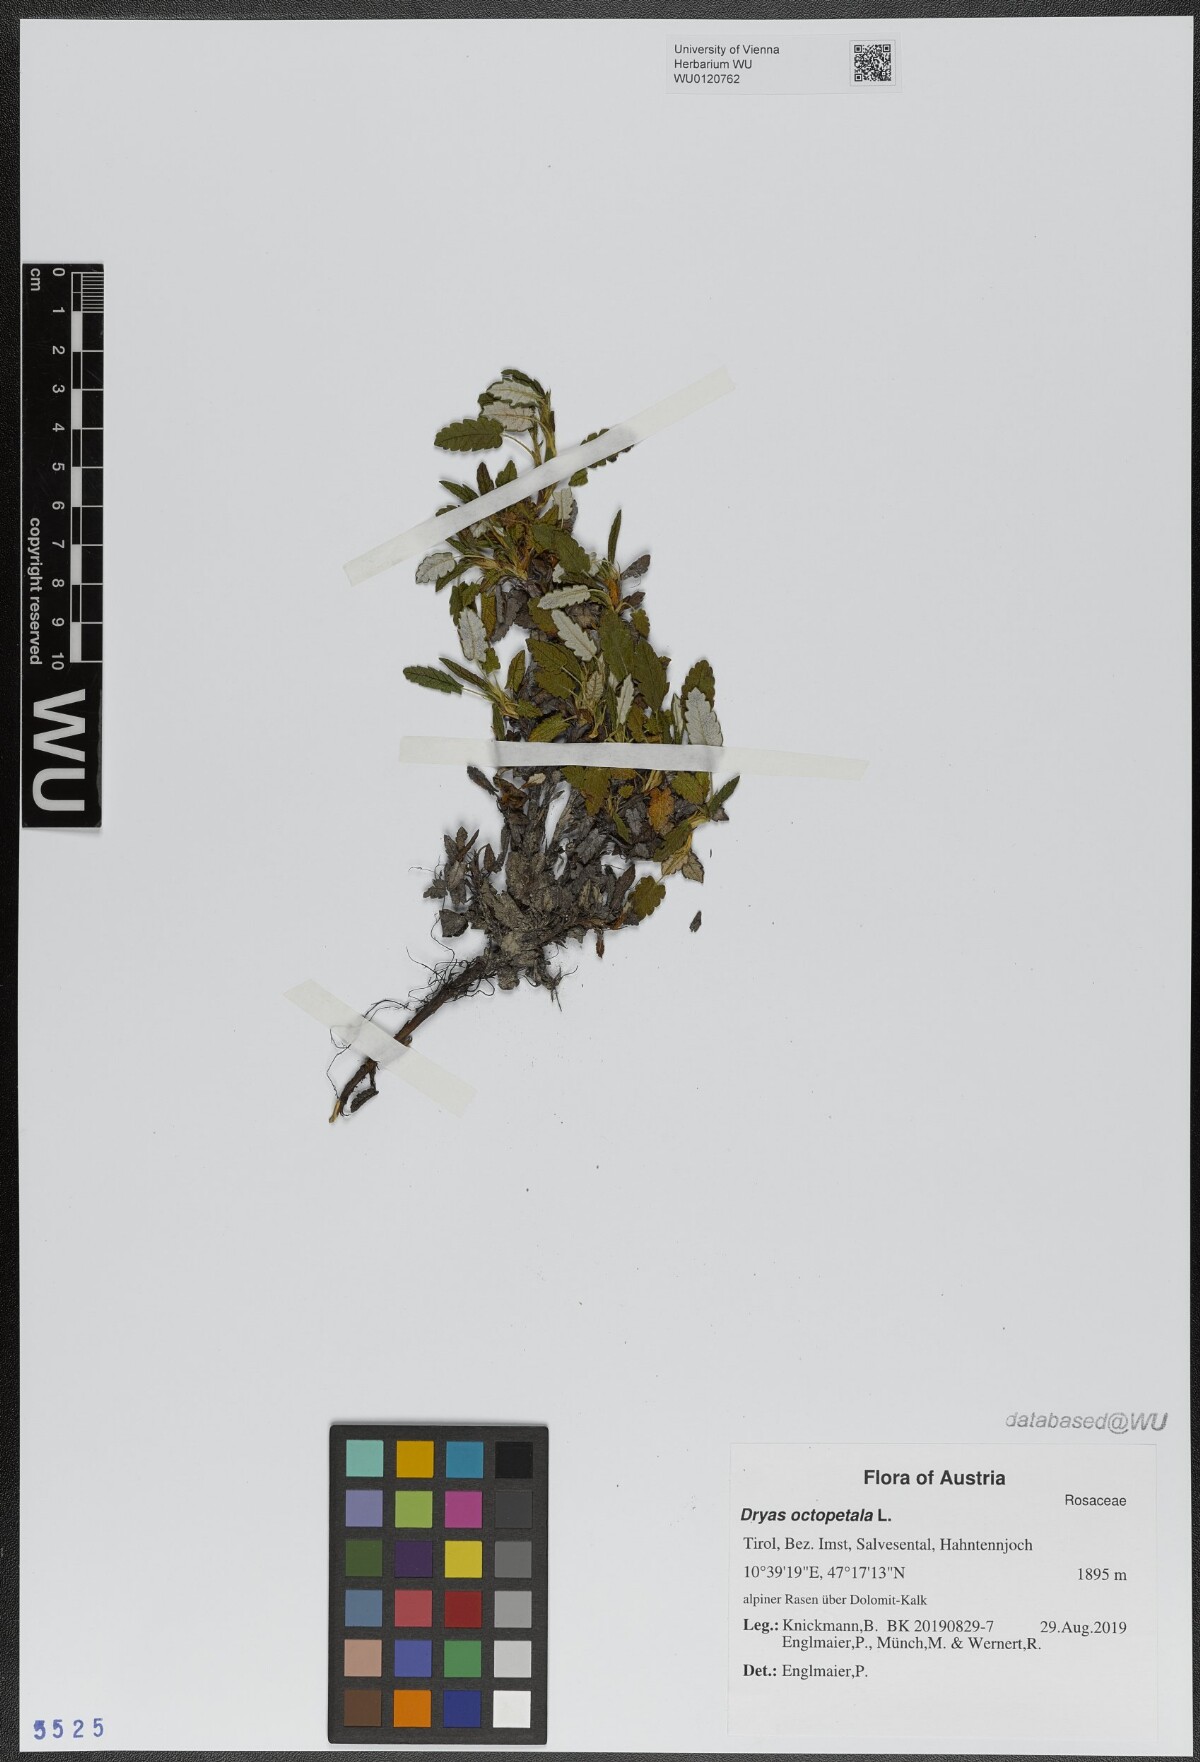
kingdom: Plantae
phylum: Tracheophyta
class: Magnoliopsida
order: Rosales
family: Rosaceae
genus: Dryas
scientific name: Dryas octopetala
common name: Eight-petal mountain-avens
